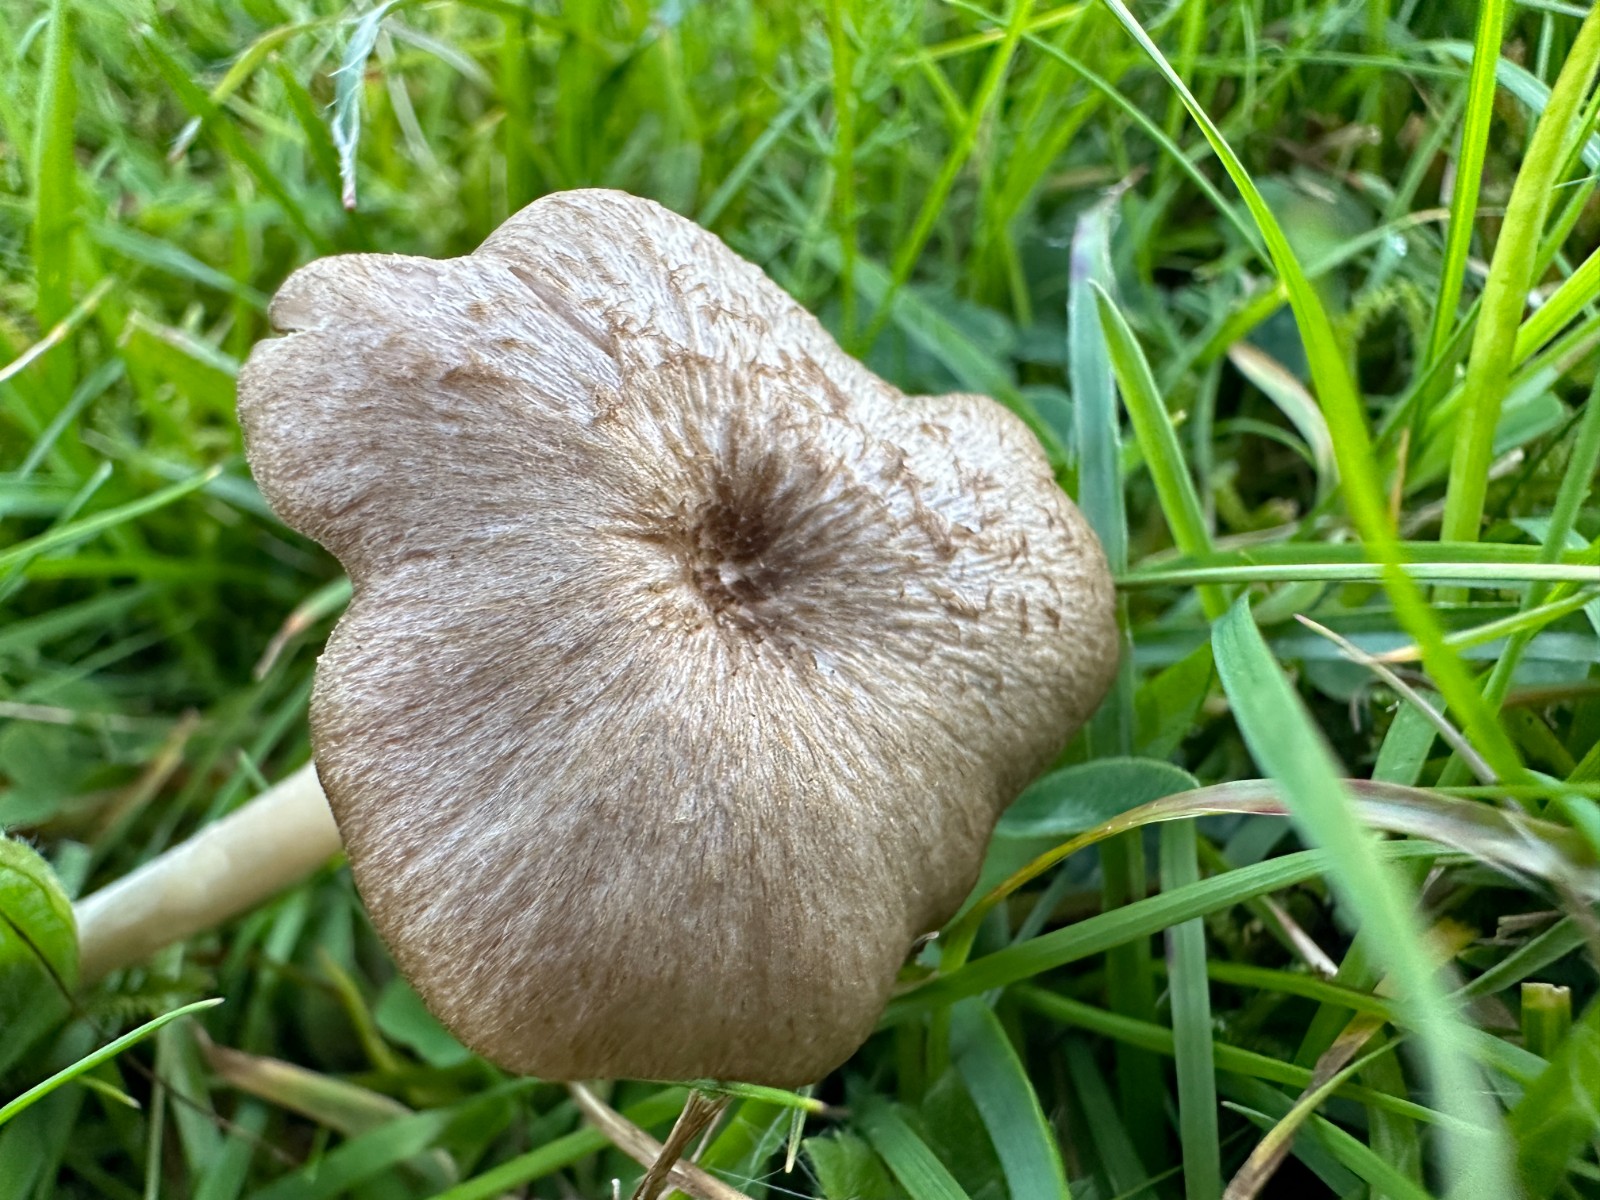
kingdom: Fungi
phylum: Basidiomycota
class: Agaricomycetes
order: Agaricales
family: Entolomataceae
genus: Entoloma
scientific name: Entoloma
